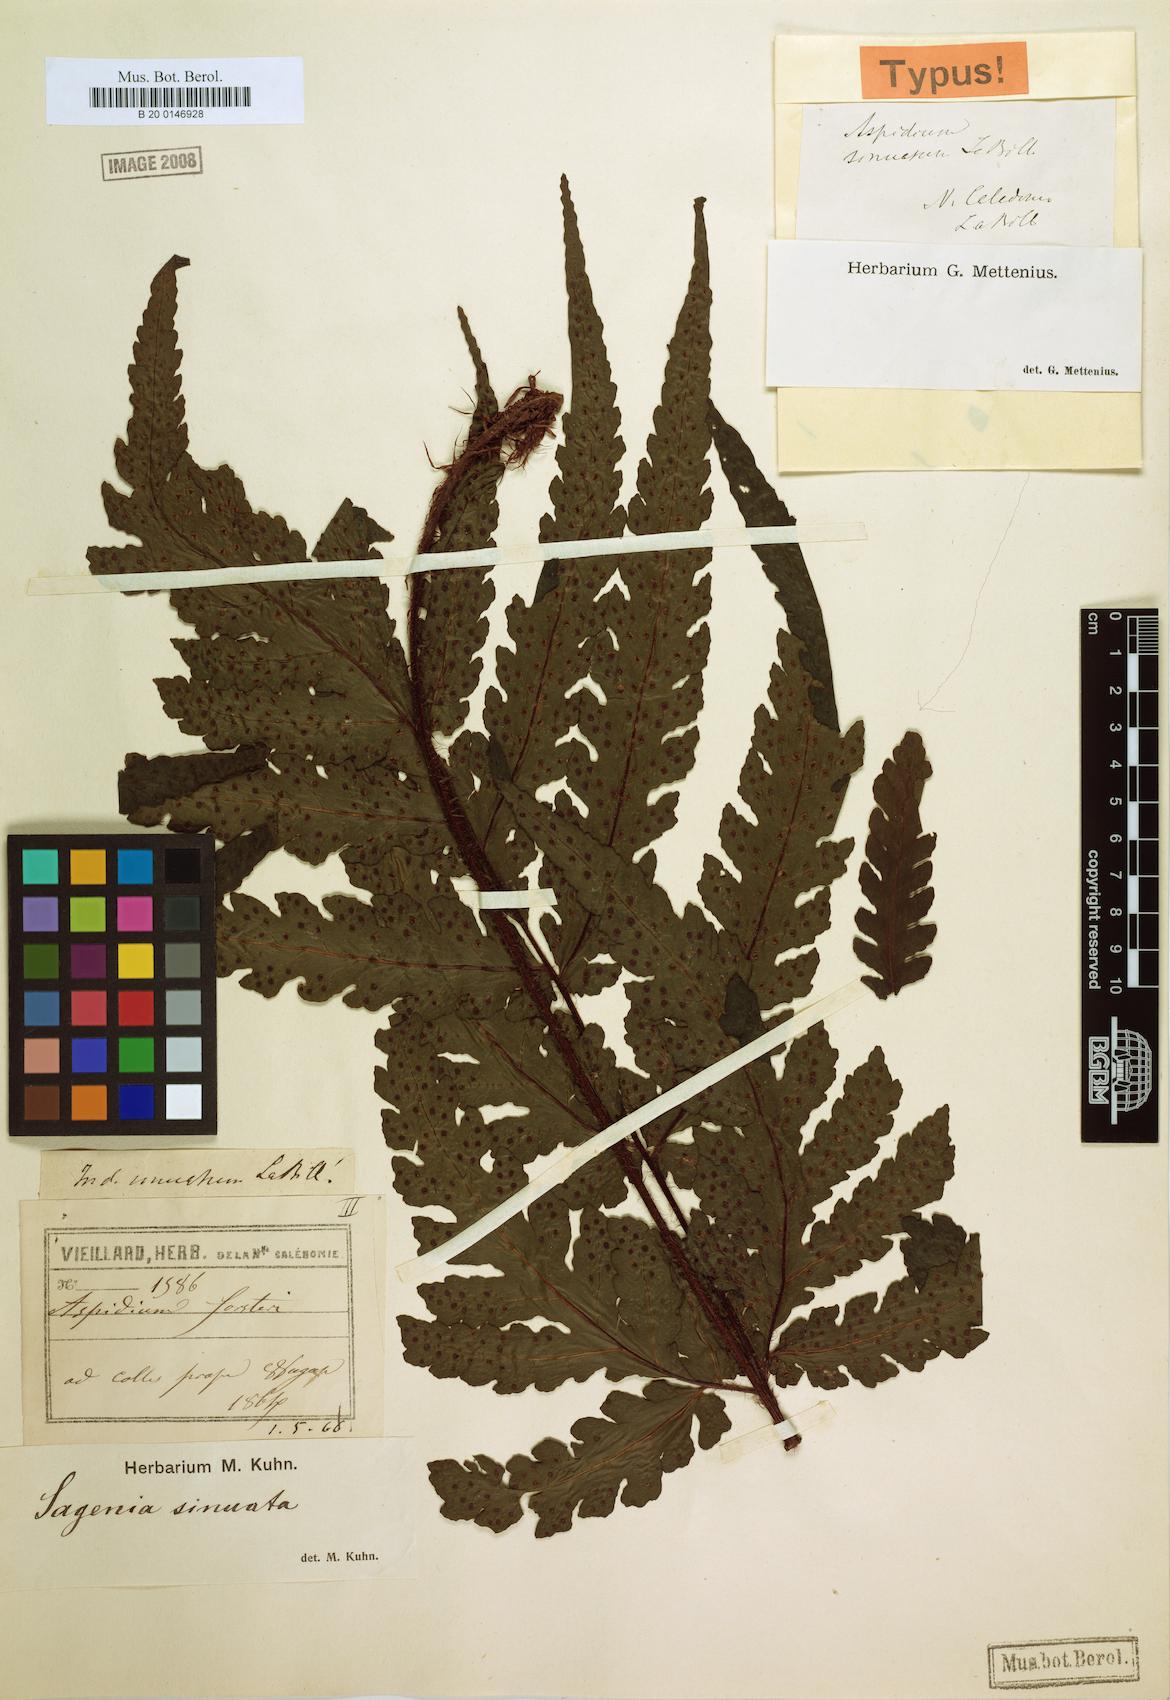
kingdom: Plantae
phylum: Tracheophyta
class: Polypodiopsida
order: Polypodiales
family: Tectariaceae
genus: Tectaria
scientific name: Tectaria sinuata
